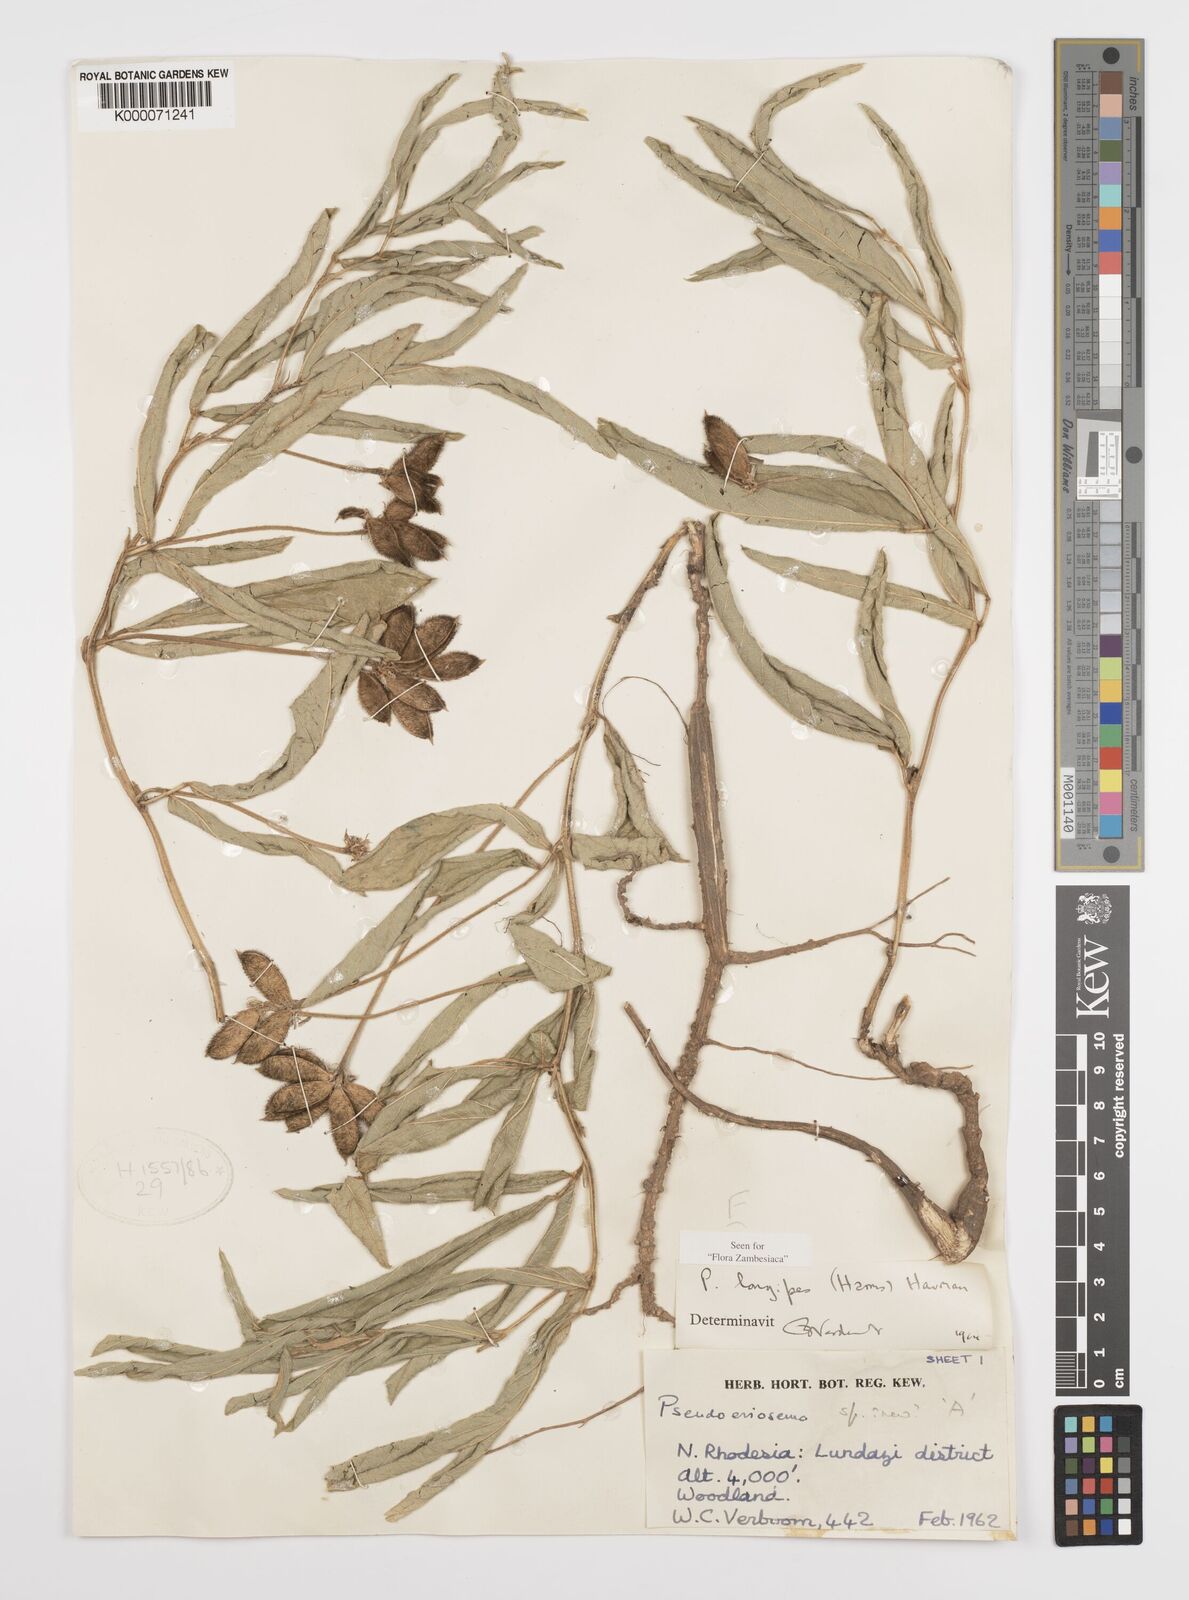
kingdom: Plantae
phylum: Tracheophyta
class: Magnoliopsida
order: Fabales
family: Fabaceae
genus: Pseudoeriosema
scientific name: Pseudoeriosema longipes
